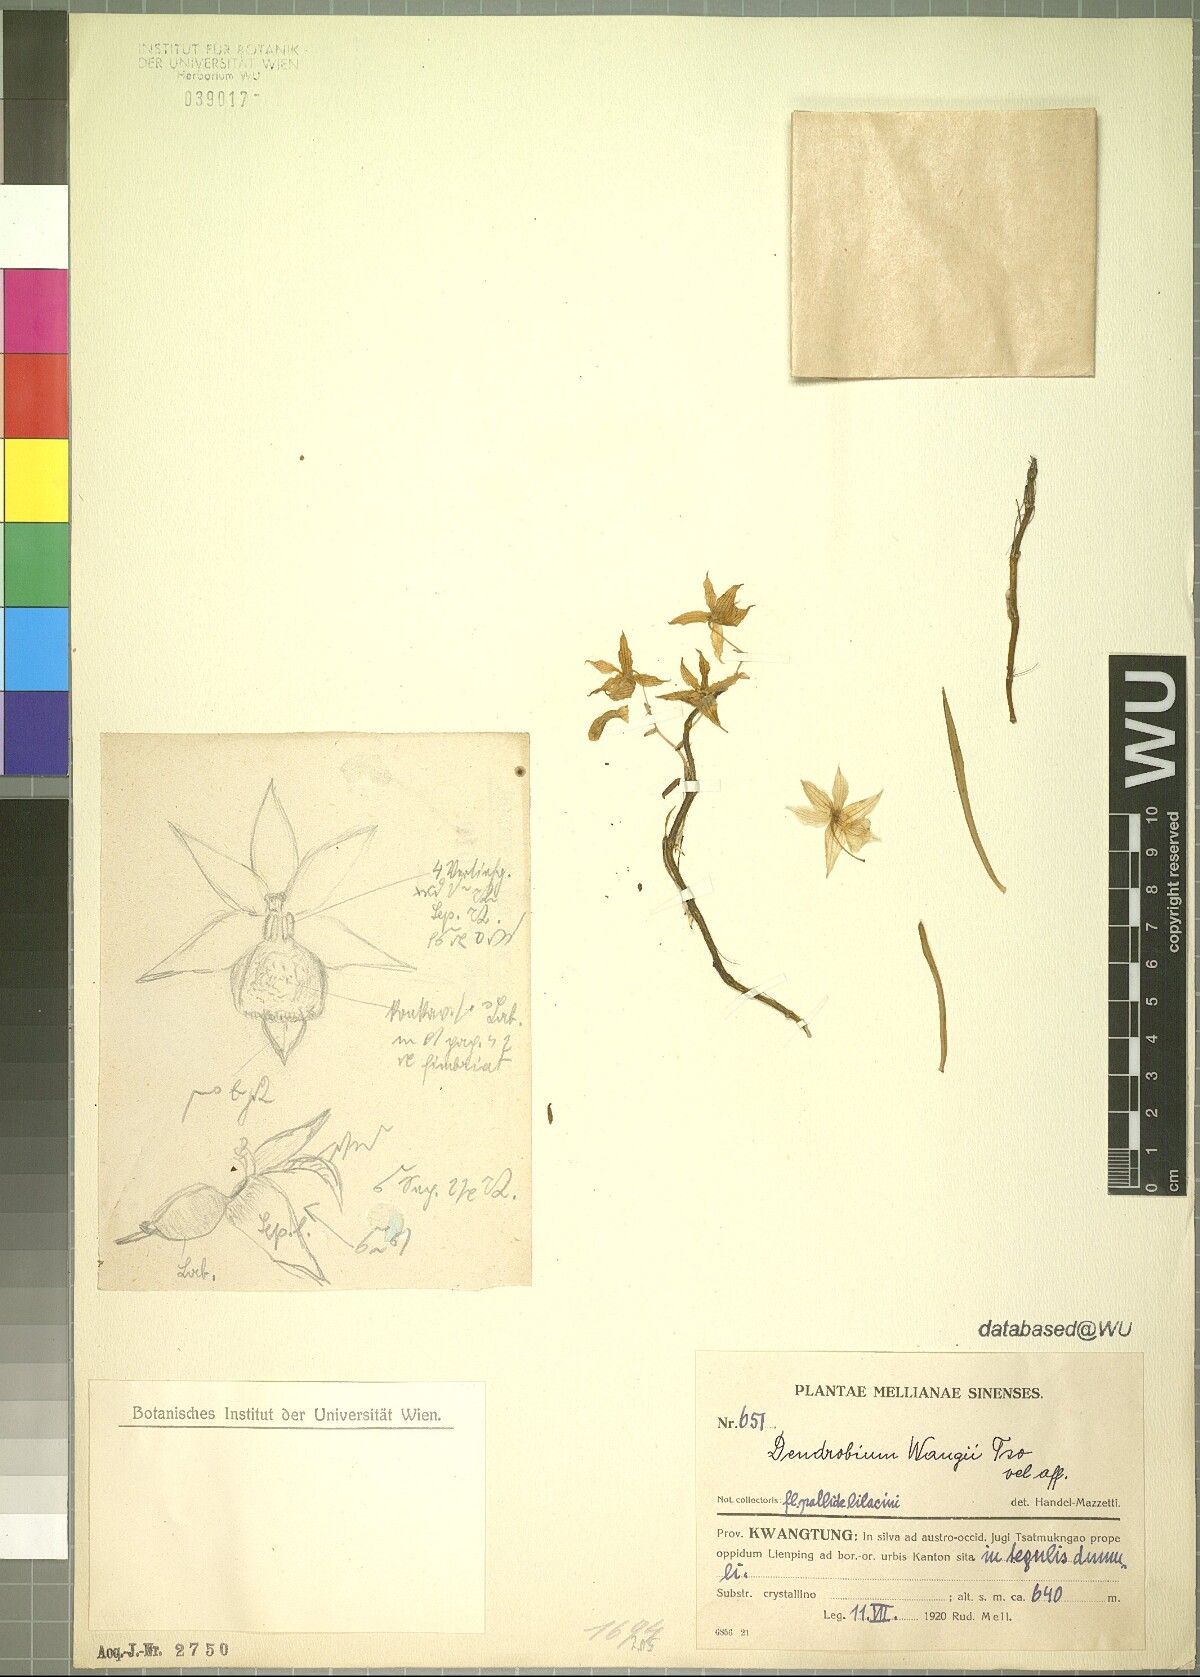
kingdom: Plantae
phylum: Tracheophyta
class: Liliopsida
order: Asparagales
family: Orchidaceae
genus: Dendrobium
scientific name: Dendrobium
